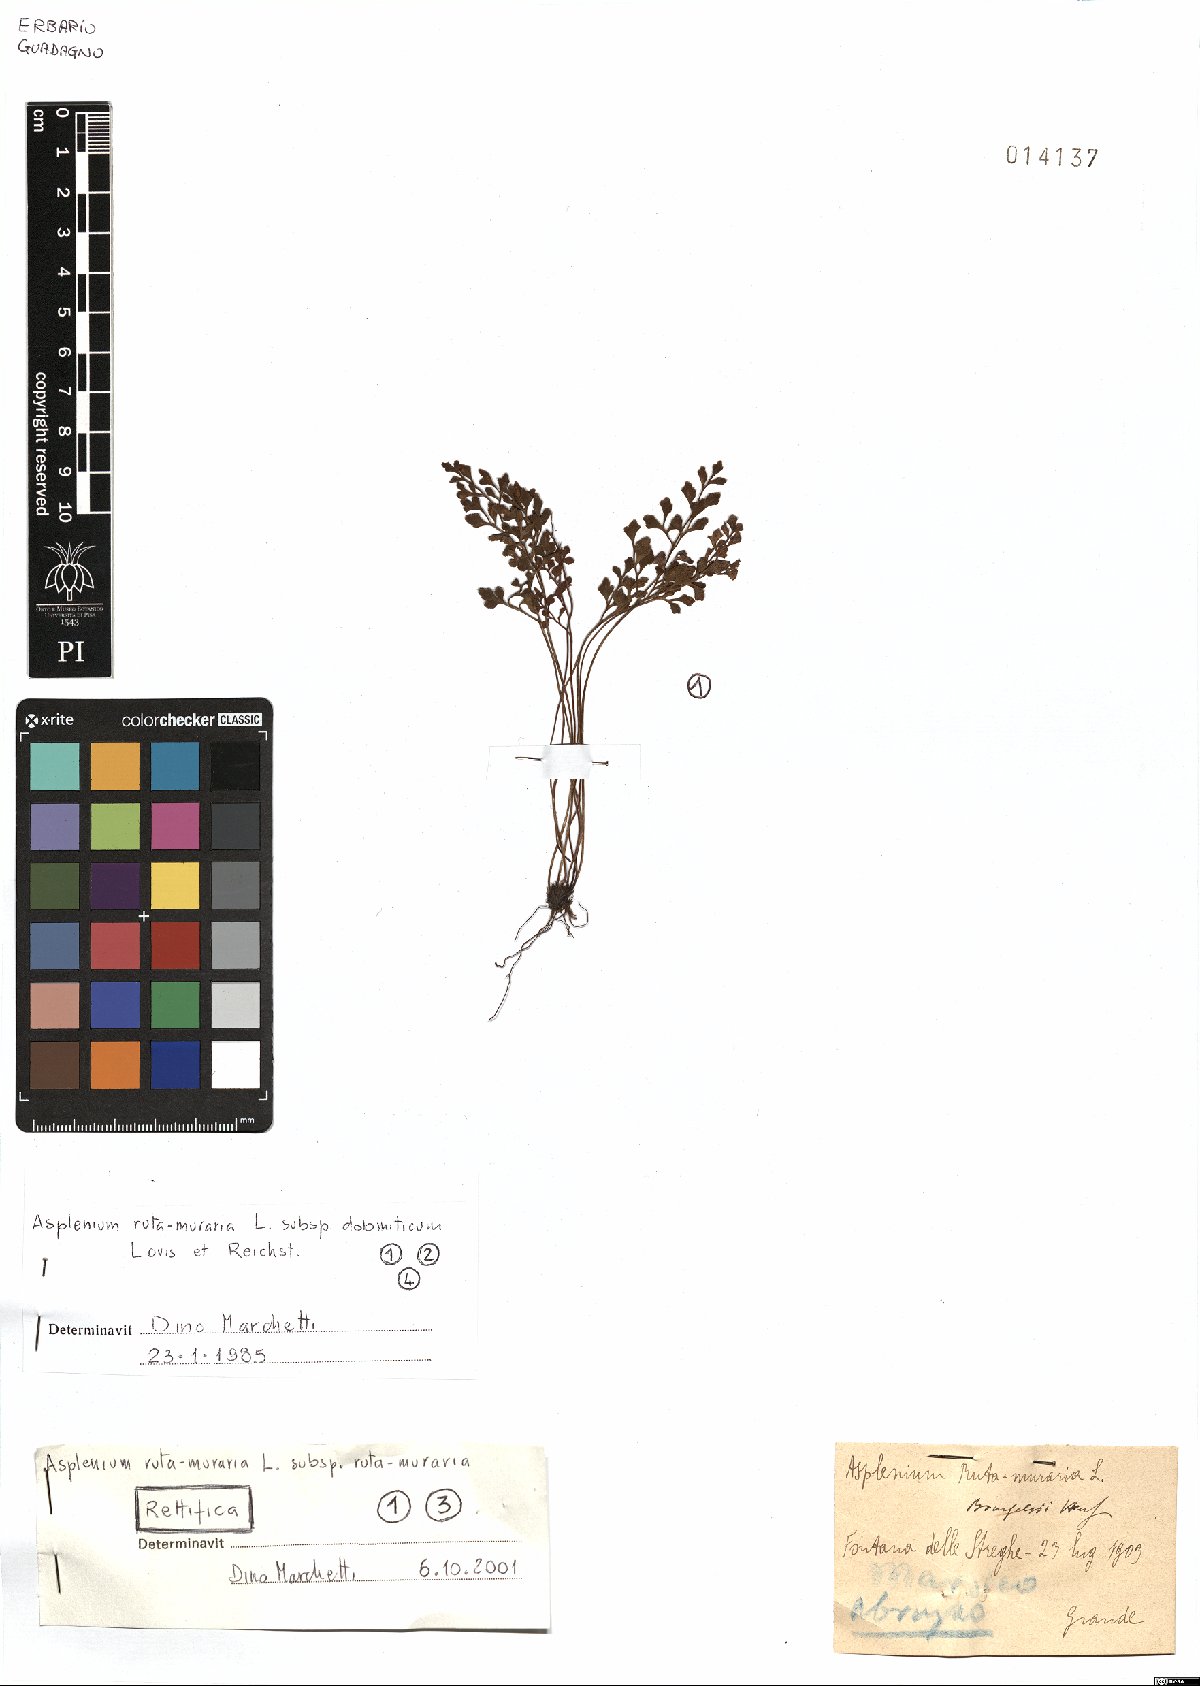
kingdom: Plantae
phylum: Tracheophyta
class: Polypodiopsida
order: Polypodiales
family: Aspleniaceae
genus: Asplenium
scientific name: Asplenium ruta-muraria
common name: Wall-rue
